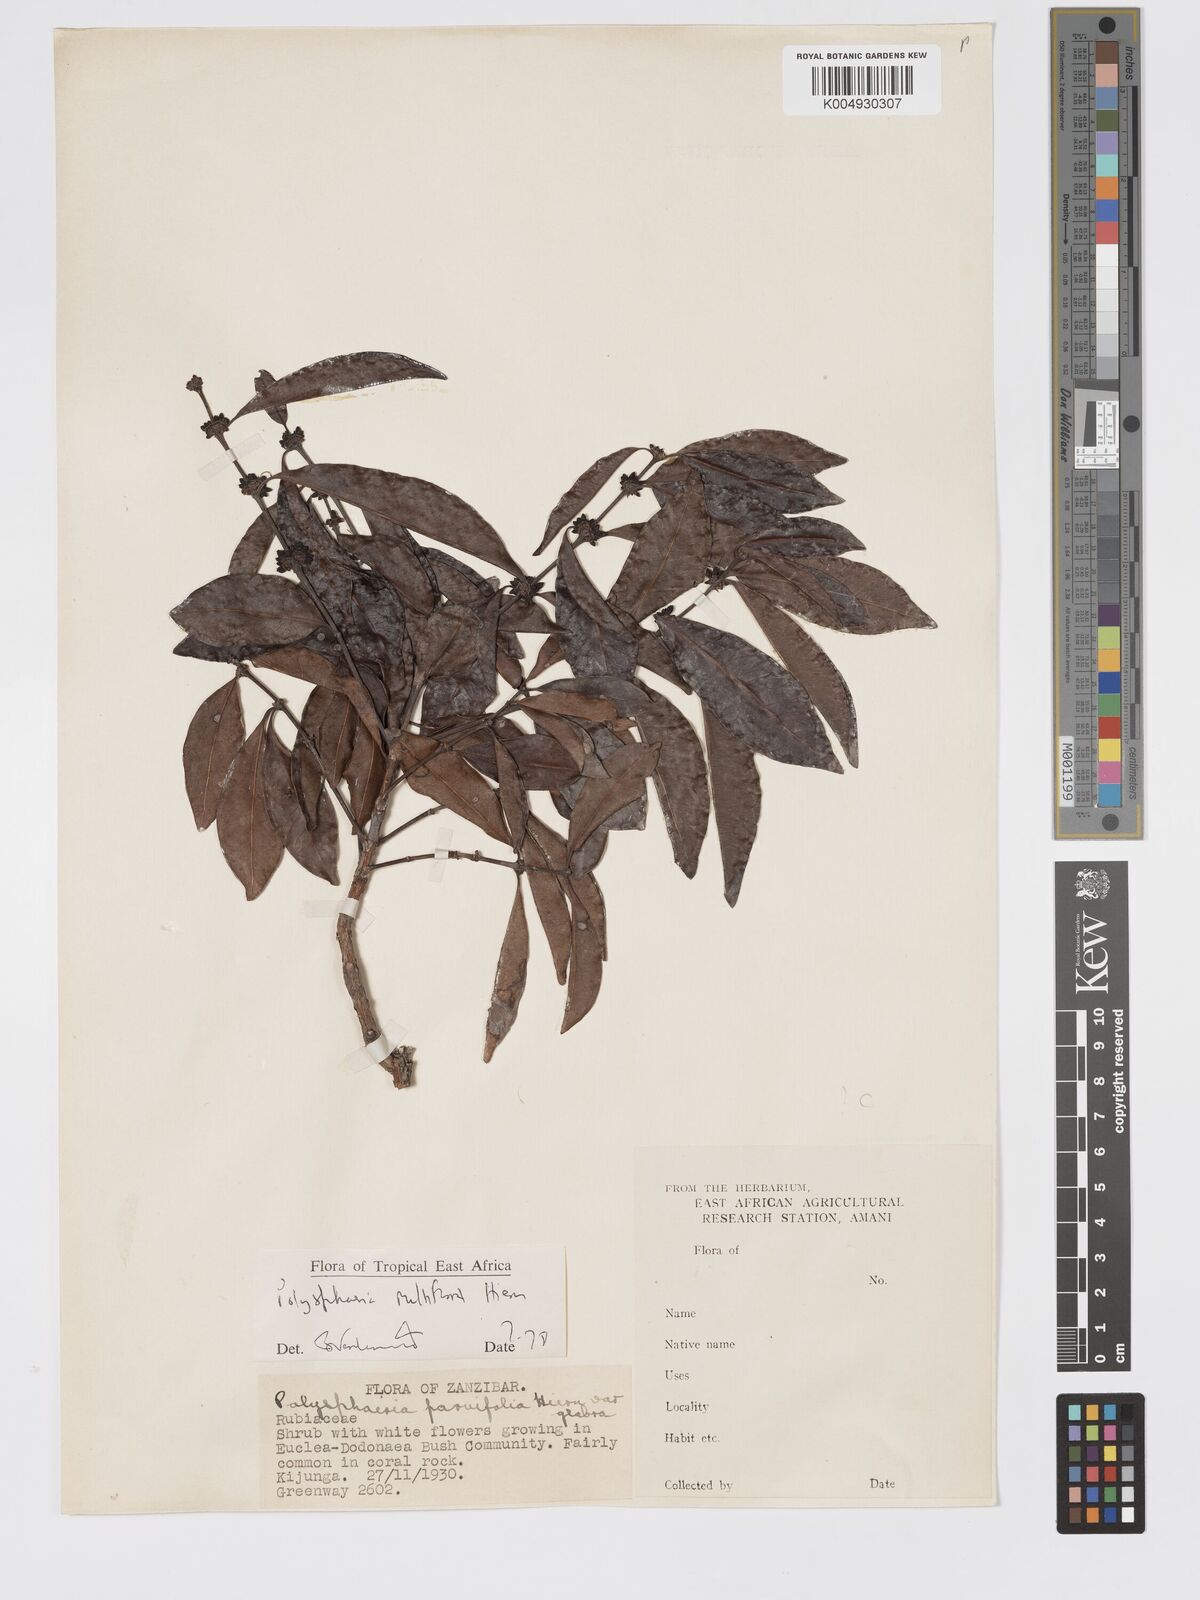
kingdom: Plantae
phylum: Tracheophyta
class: Magnoliopsida
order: Gentianales
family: Rubiaceae
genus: Polysphaeria
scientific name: Polysphaeria multiflora
